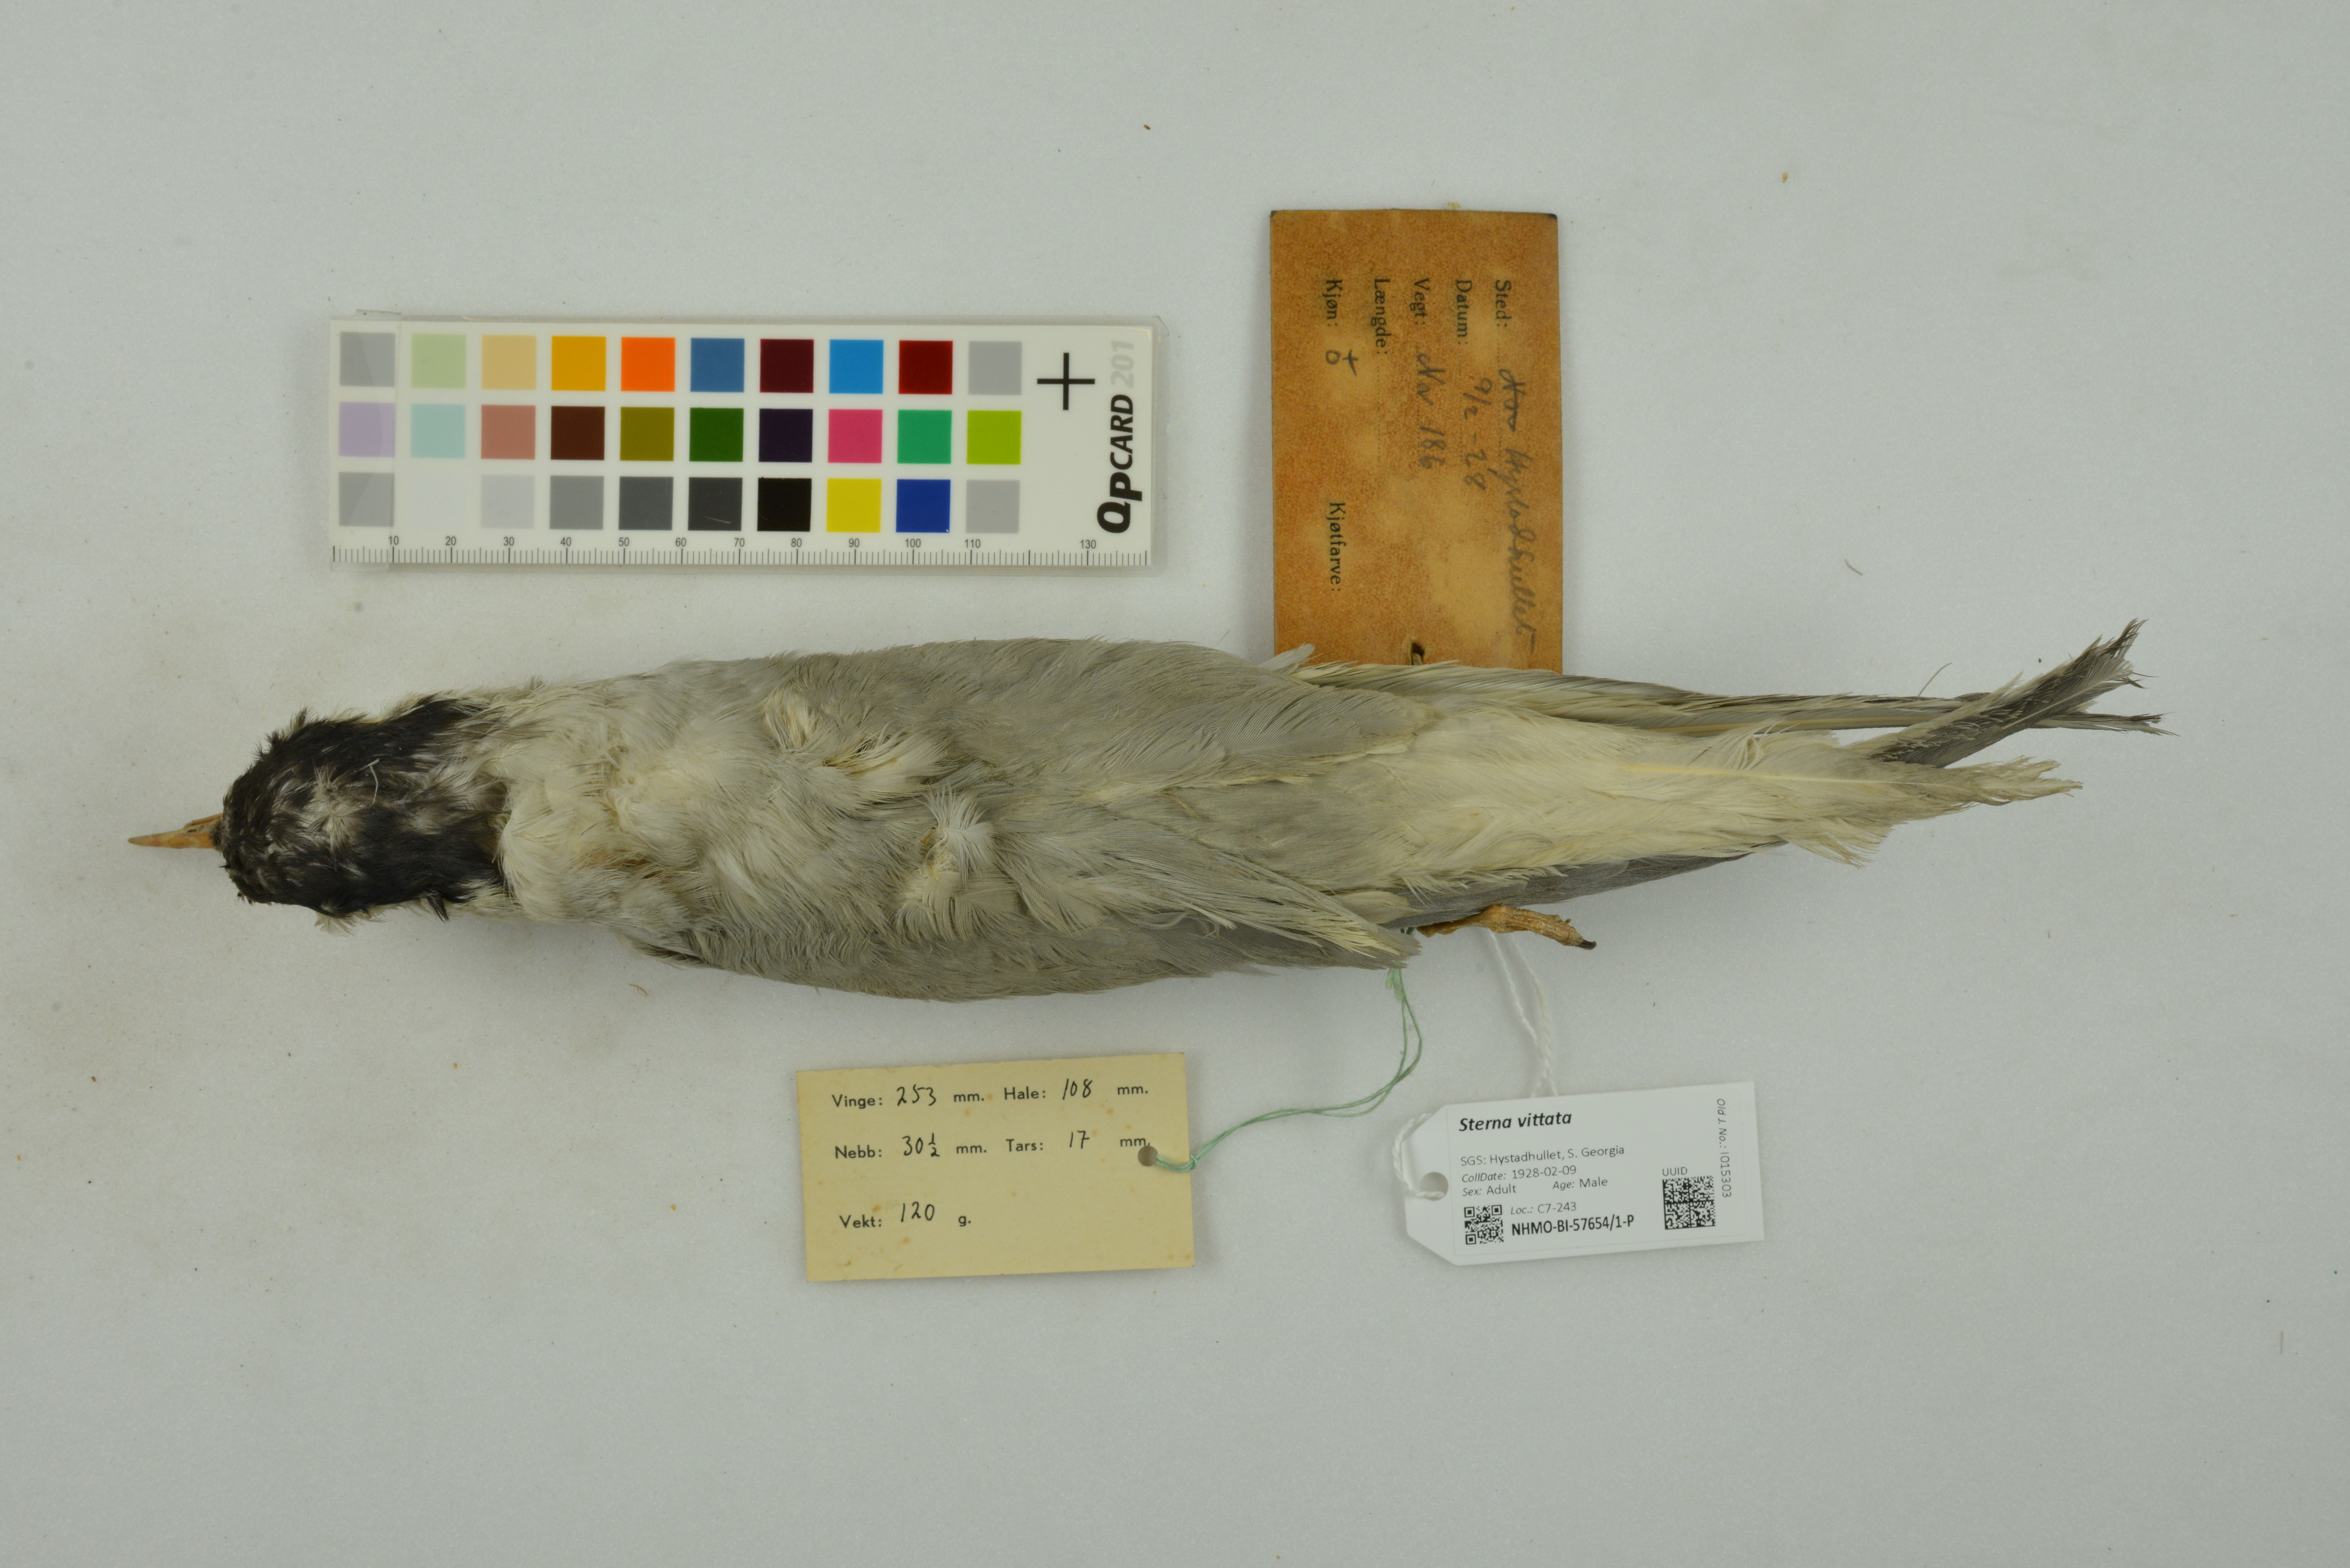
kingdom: Animalia
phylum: Chordata
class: Aves
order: Charadriiformes
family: Laridae
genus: Sterna
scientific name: Sterna vittata
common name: Antarctic tern
